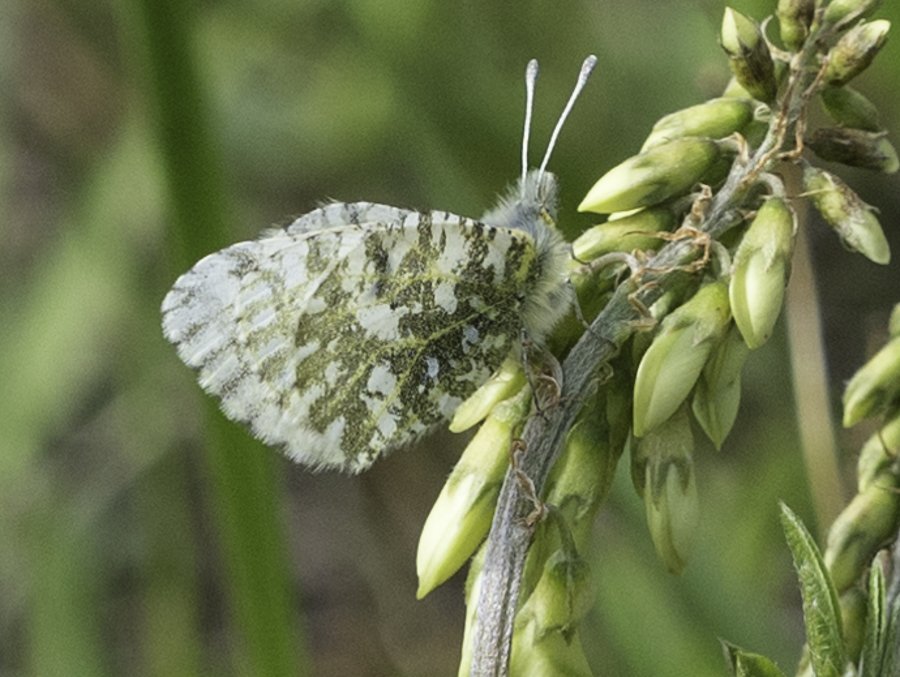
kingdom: Animalia
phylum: Arthropoda
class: Insecta
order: Lepidoptera
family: Pieridae
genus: Euchloe
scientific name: Euchloe creusa
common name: Northern Marble
